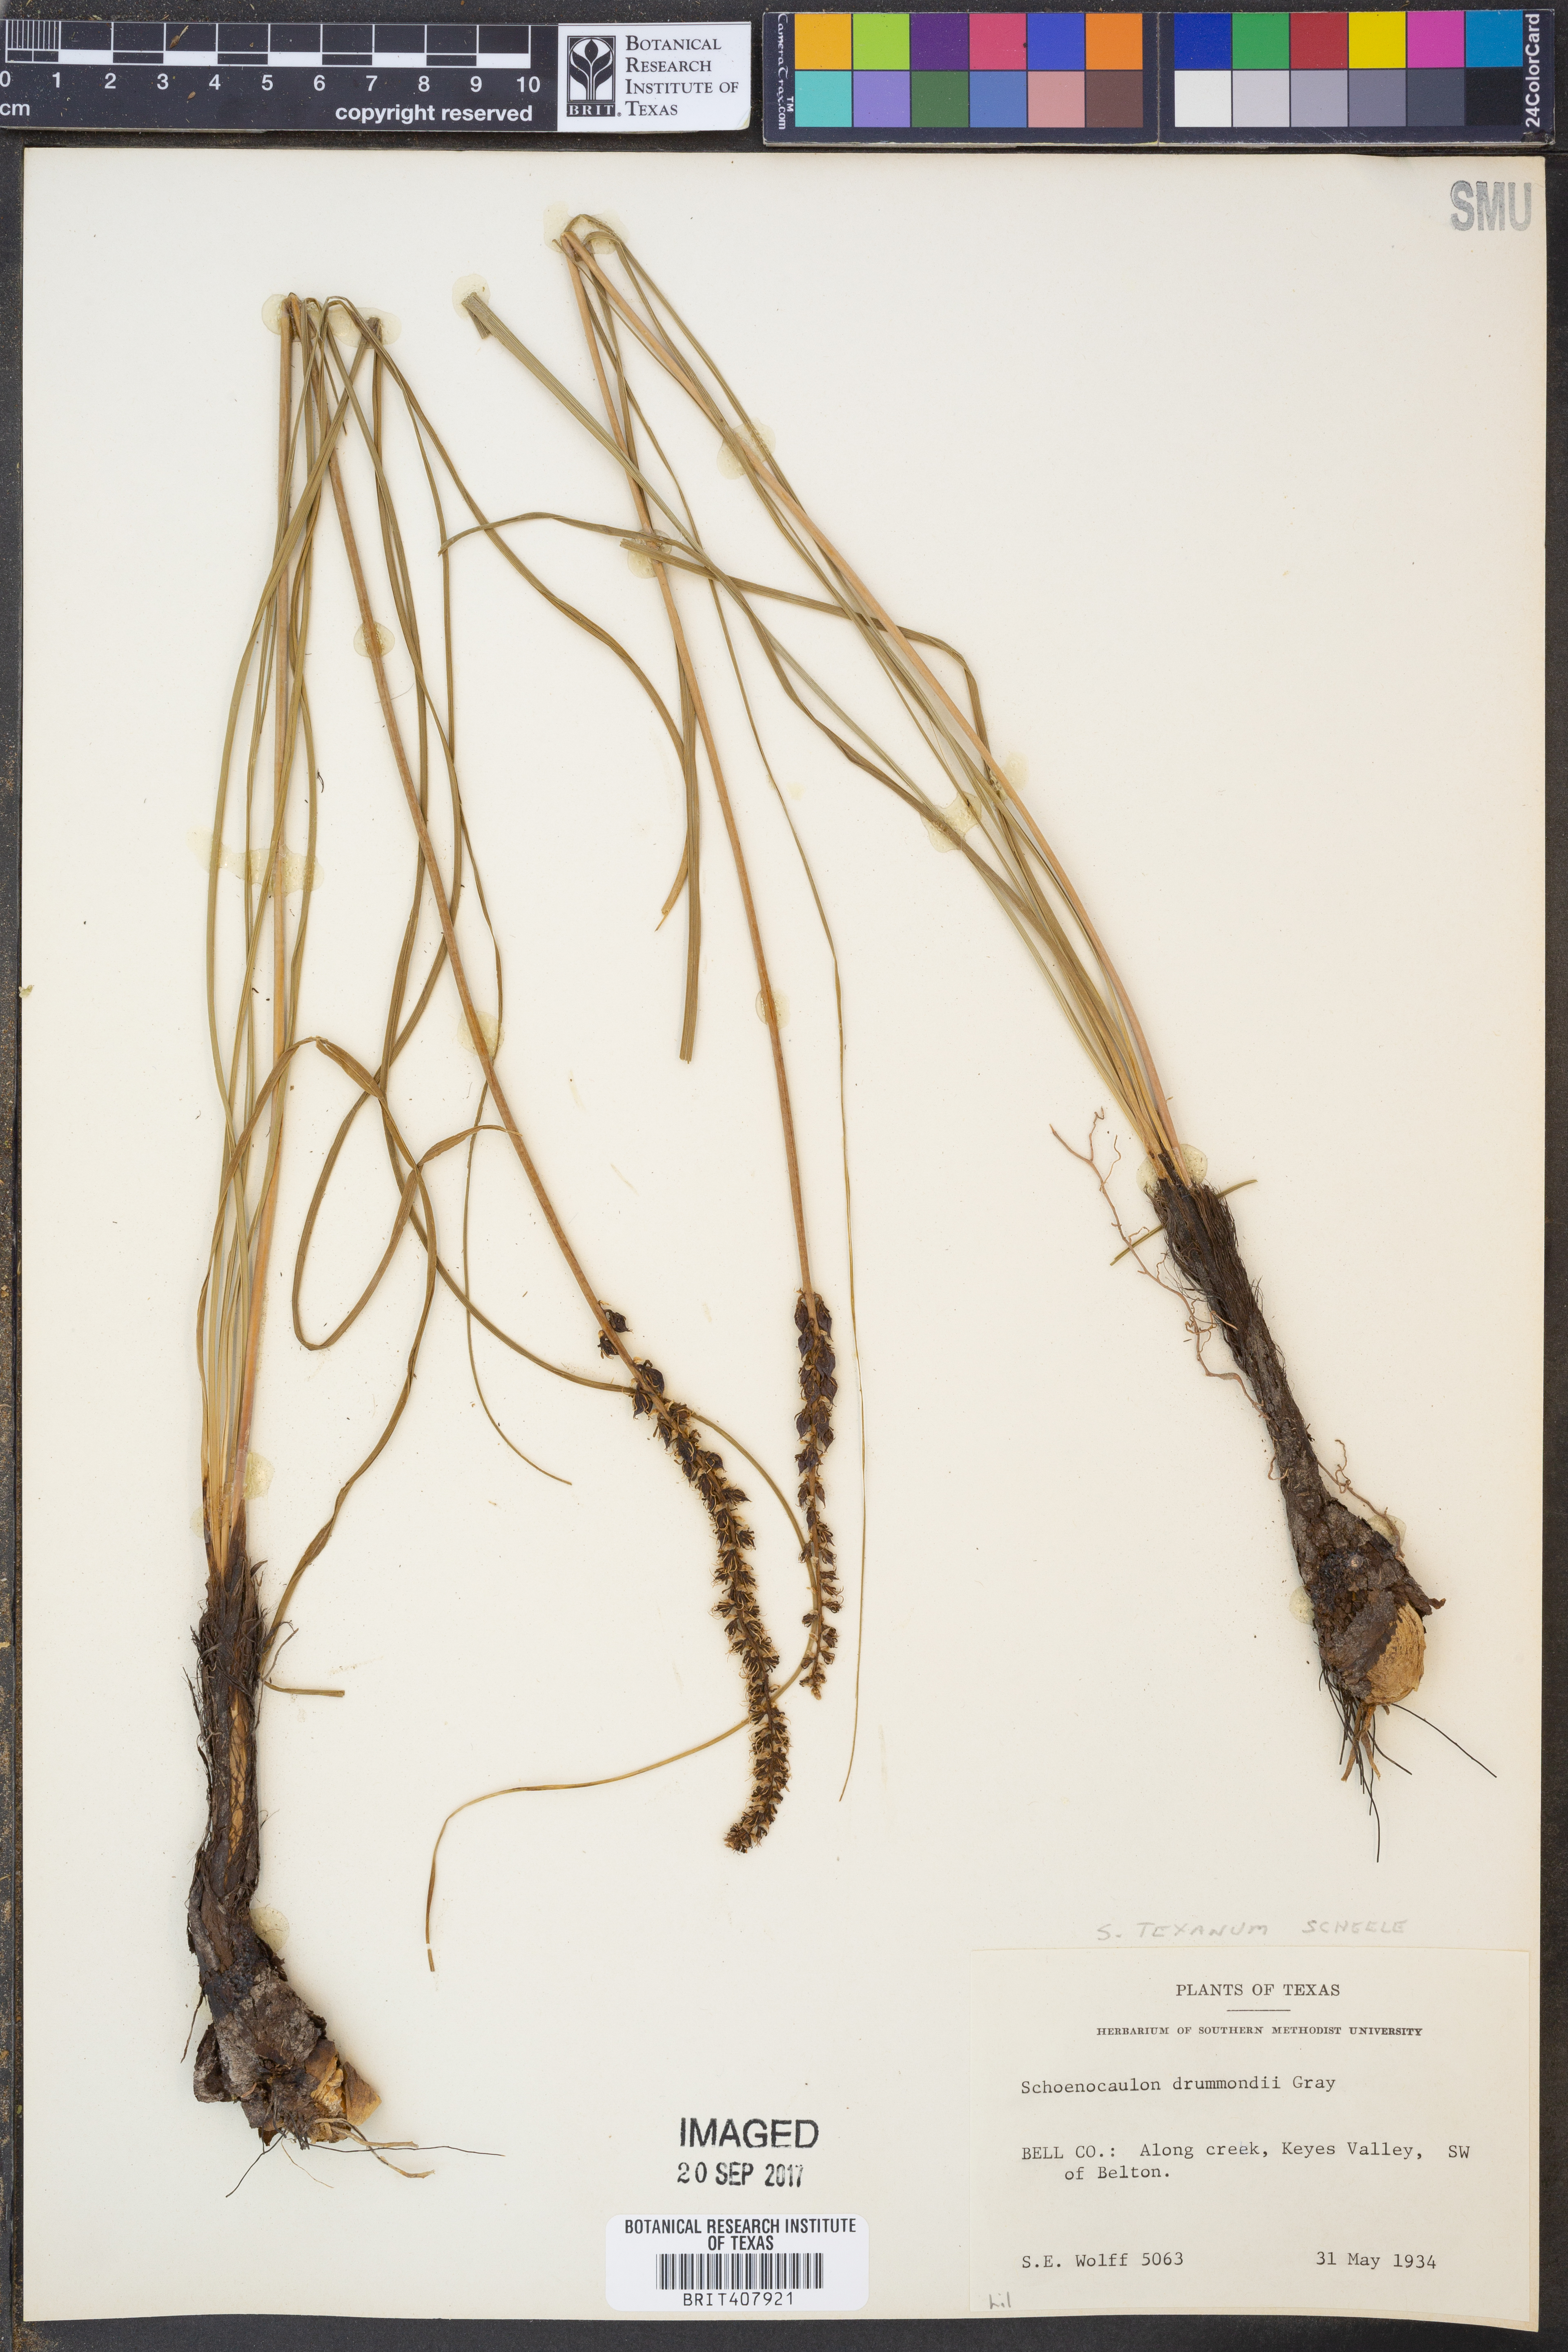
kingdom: Plantae
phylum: Tracheophyta
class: Liliopsida
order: Liliales
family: Melanthiaceae
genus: Schoenocaulon
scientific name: Schoenocaulon texanum
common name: Texas feather-shank
